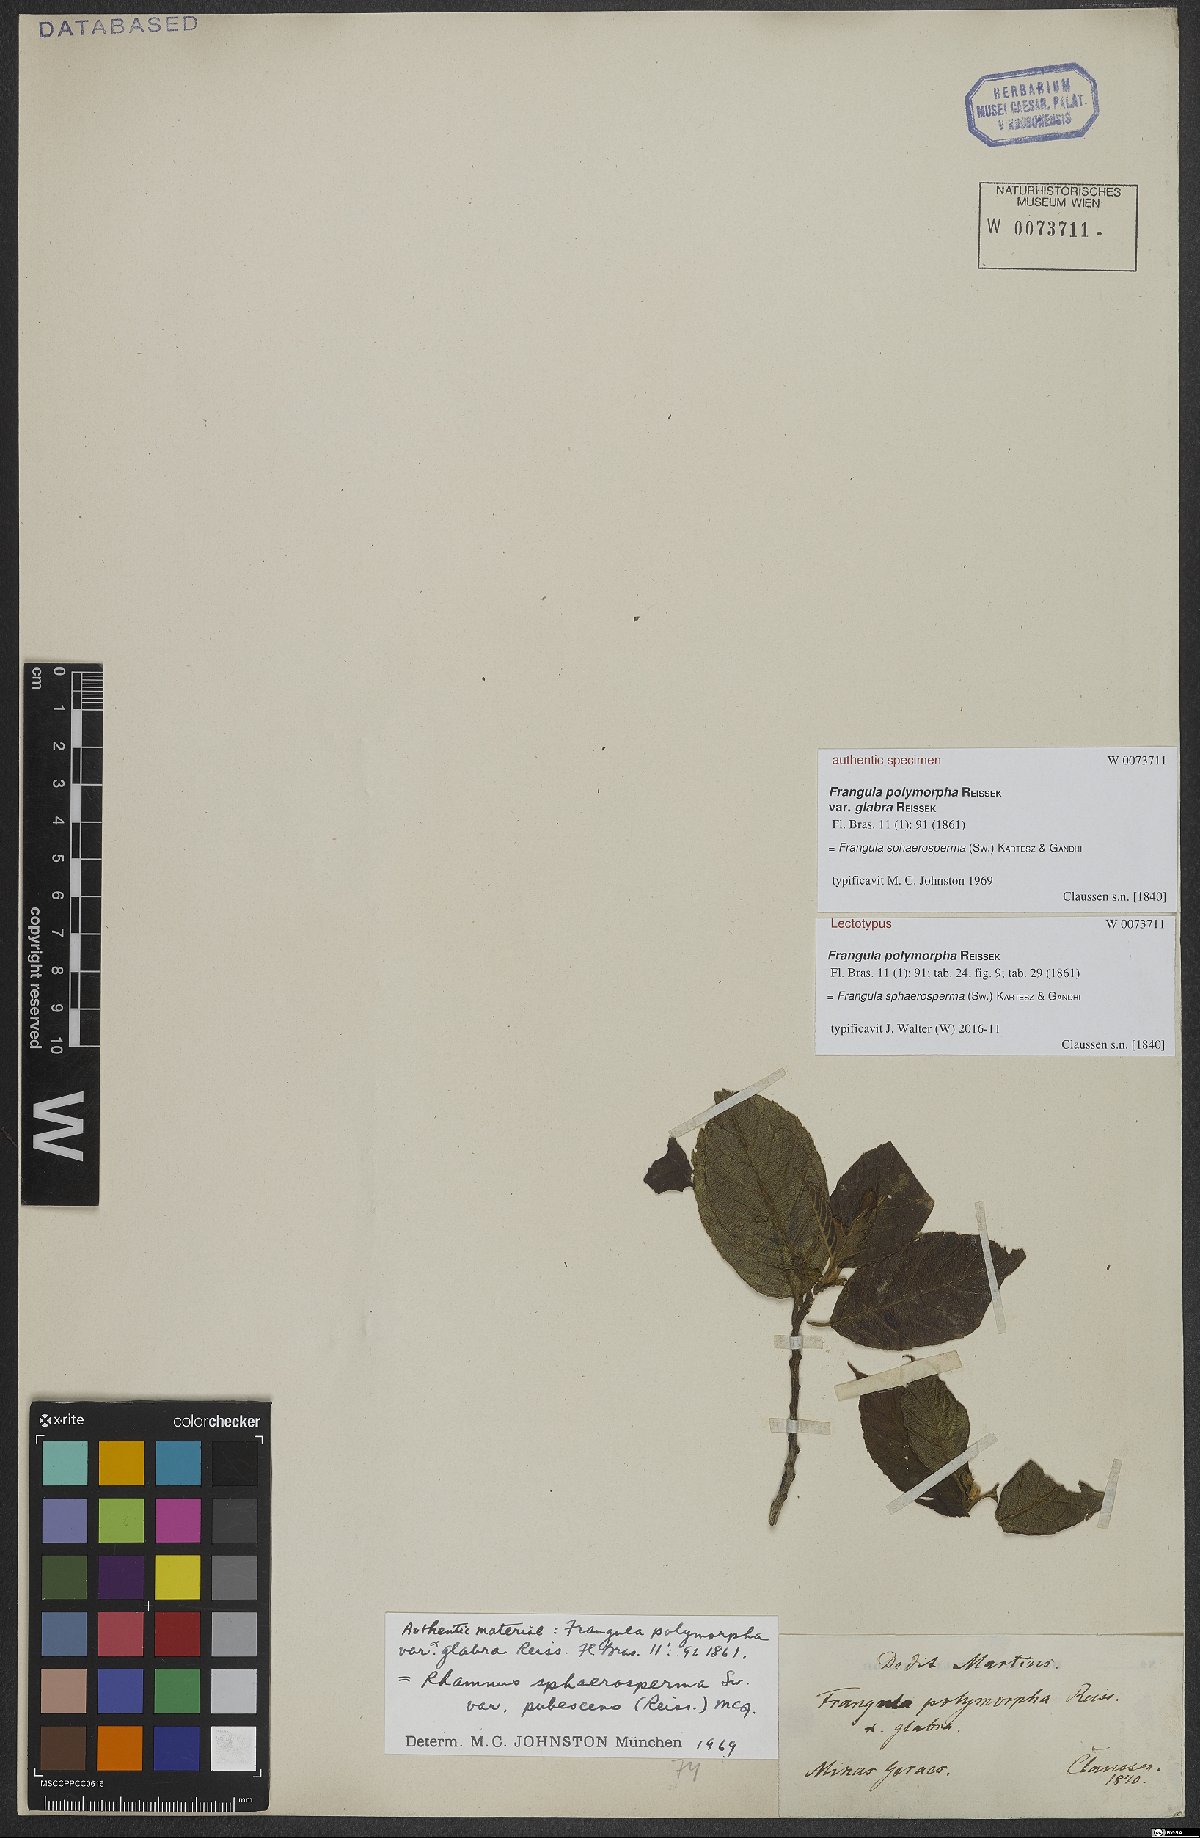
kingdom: Plantae
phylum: Tracheophyta
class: Magnoliopsida
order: Rosales
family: Rhamnaceae
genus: Frangula
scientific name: Frangula sphaerosperma
